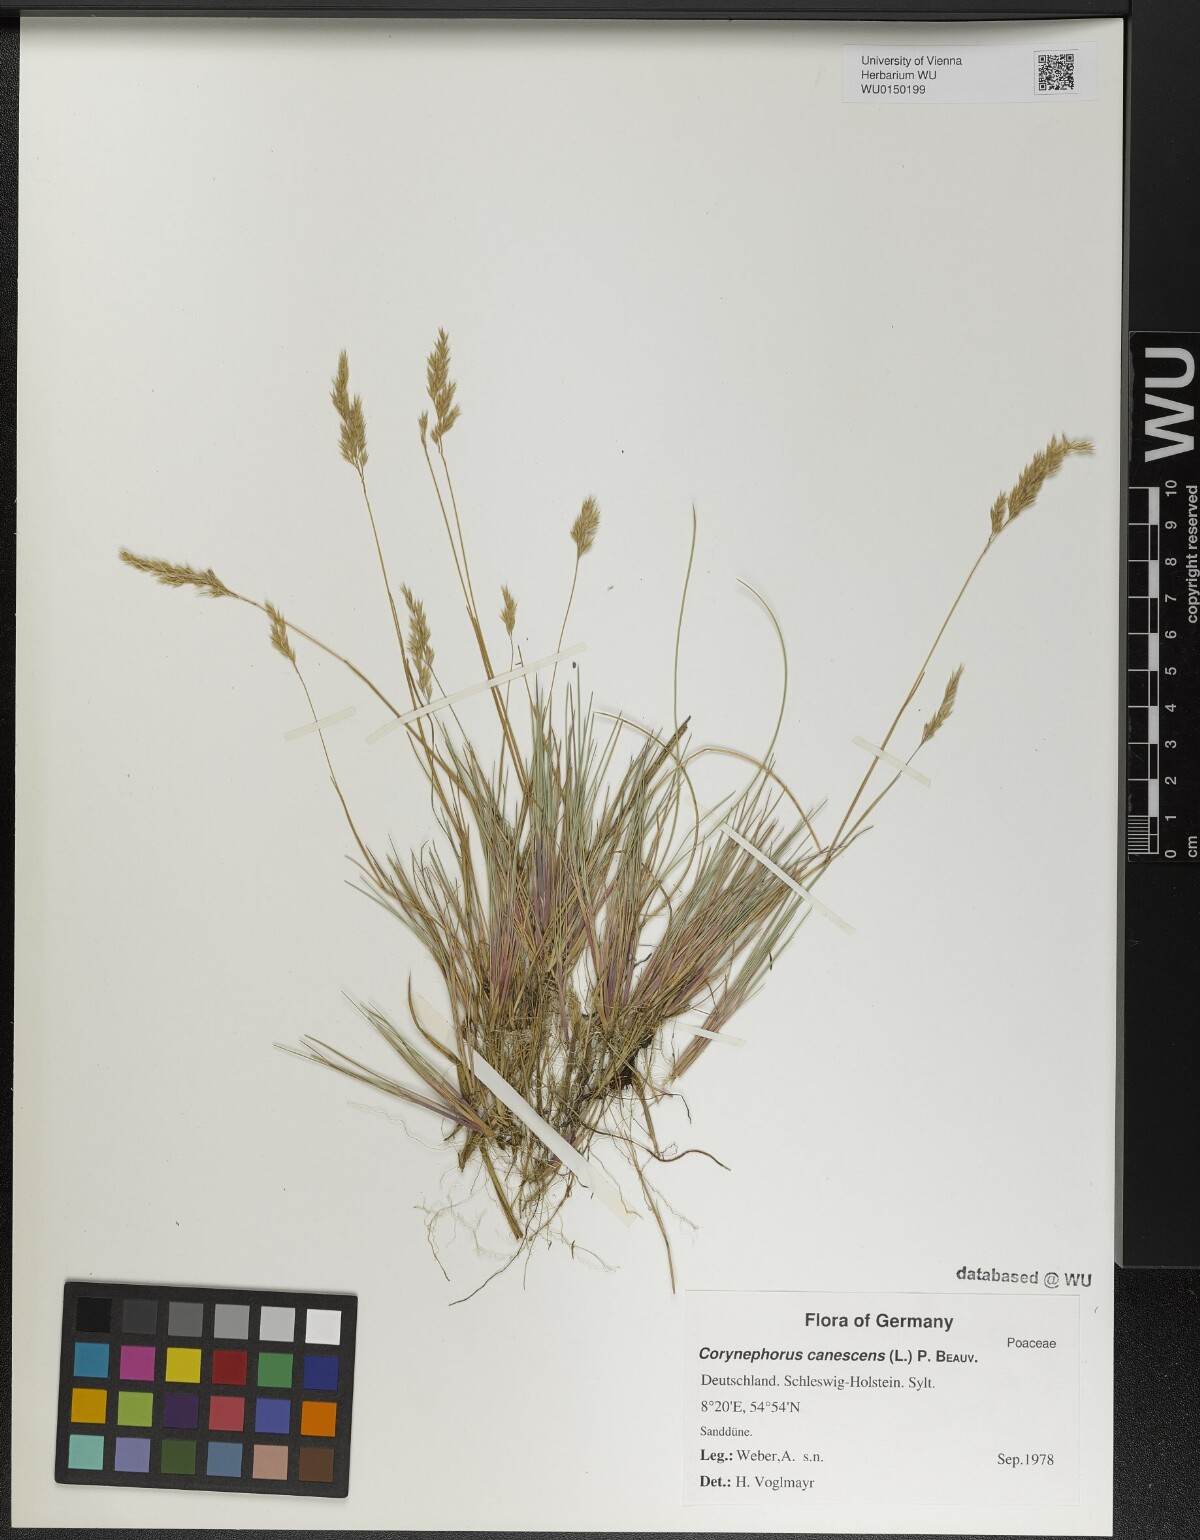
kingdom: Plantae
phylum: Tracheophyta
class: Liliopsida
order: Poales
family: Poaceae
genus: Corynephorus
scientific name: Corynephorus canescens
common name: Grey hair-grass
